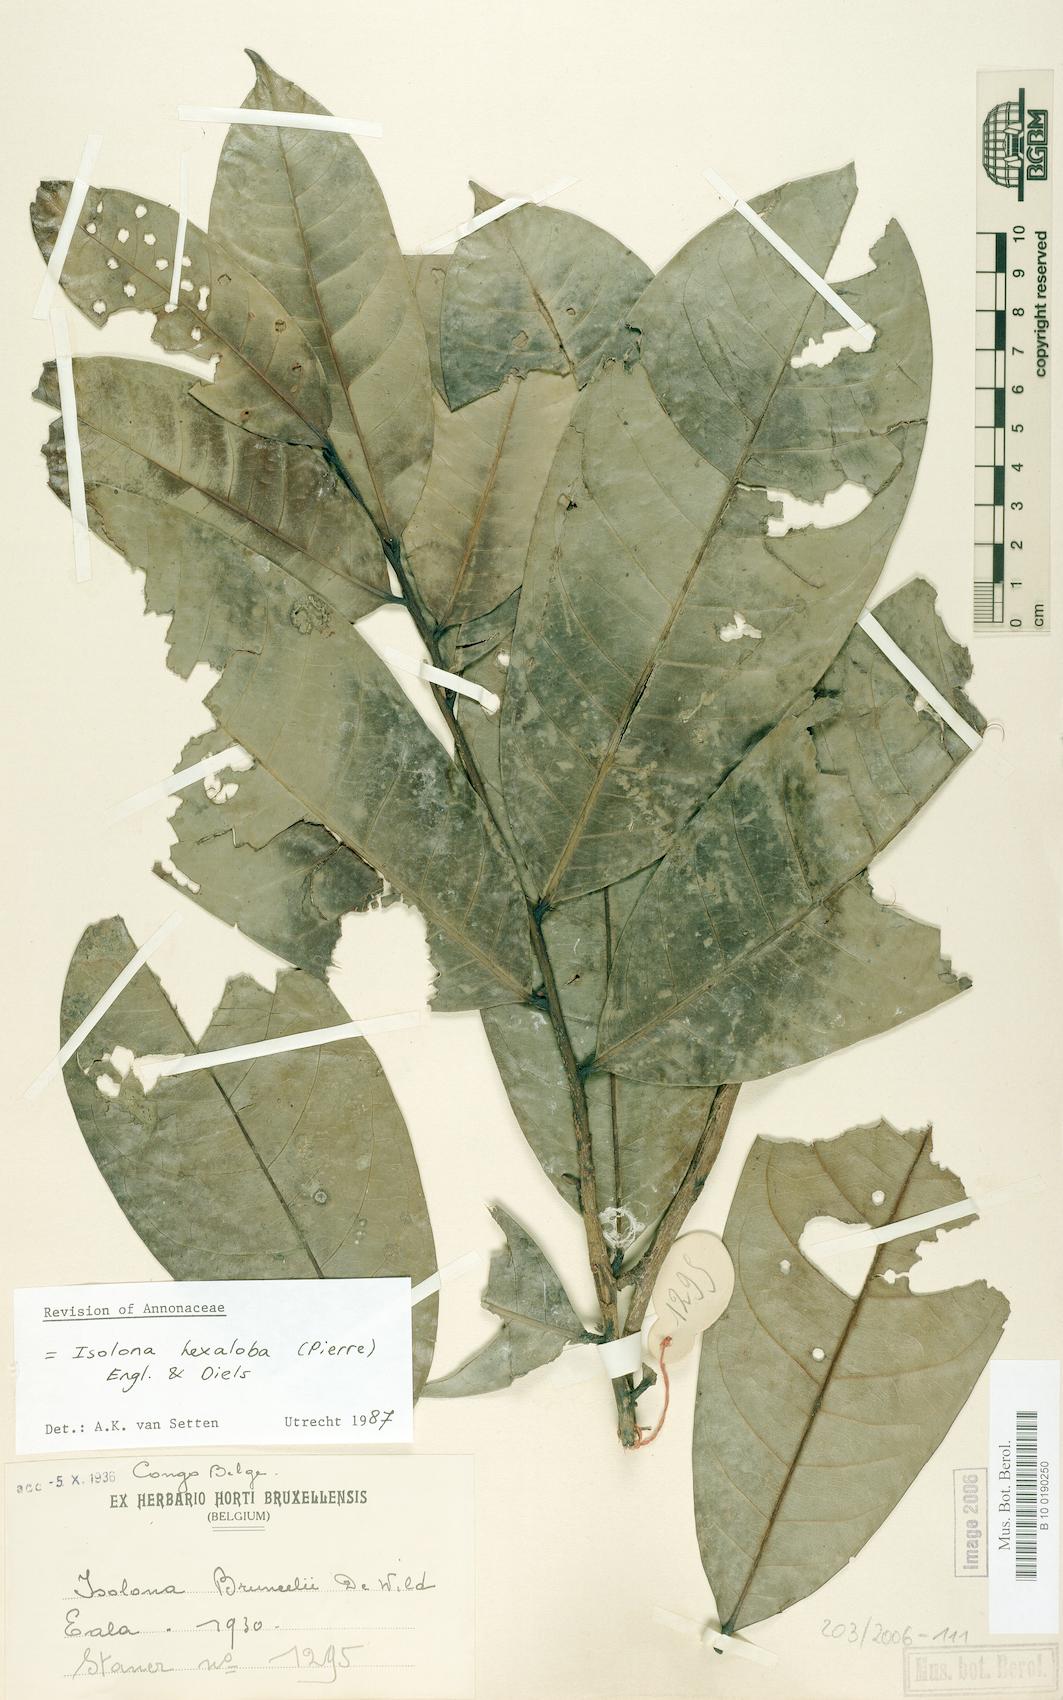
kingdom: Plantae
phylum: Tracheophyta
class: Magnoliopsida
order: Magnoliales
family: Annonaceae
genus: Isolona
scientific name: Isolona hexaloba
